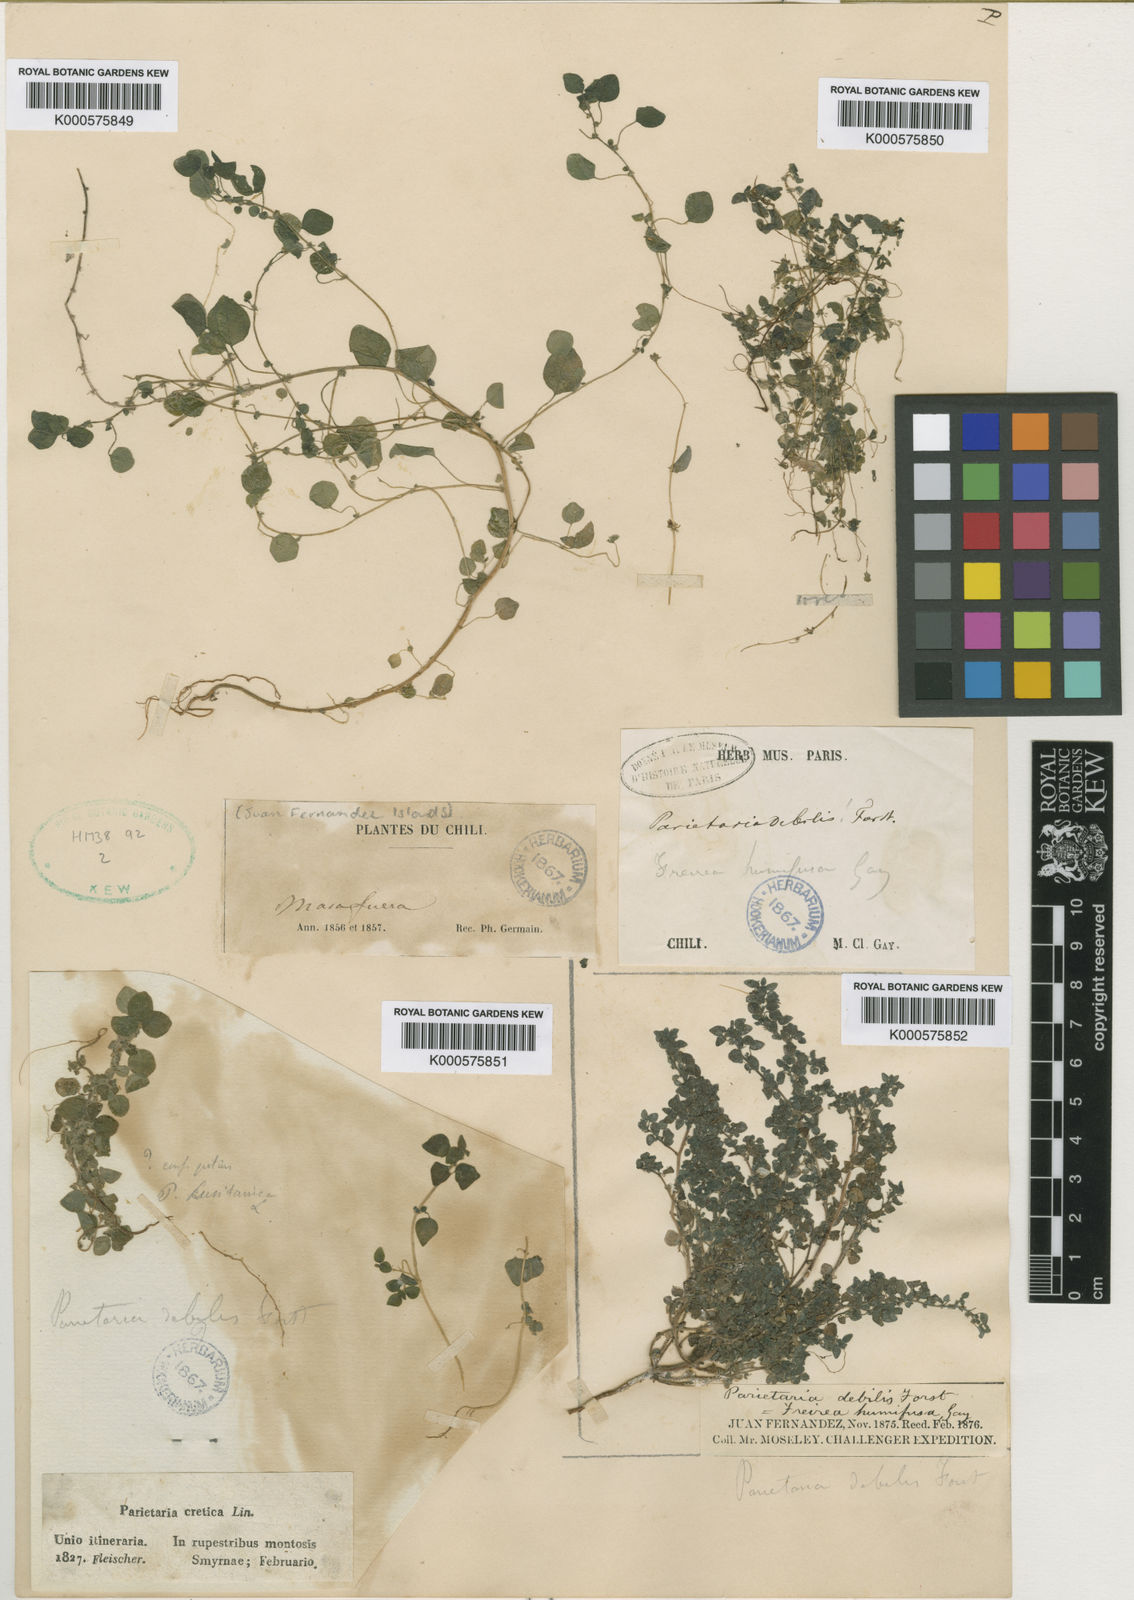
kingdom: Plantae
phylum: Tracheophyta
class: Magnoliopsida
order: Rosales
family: Urticaceae
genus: Parietaria
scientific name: Parietaria debilis
